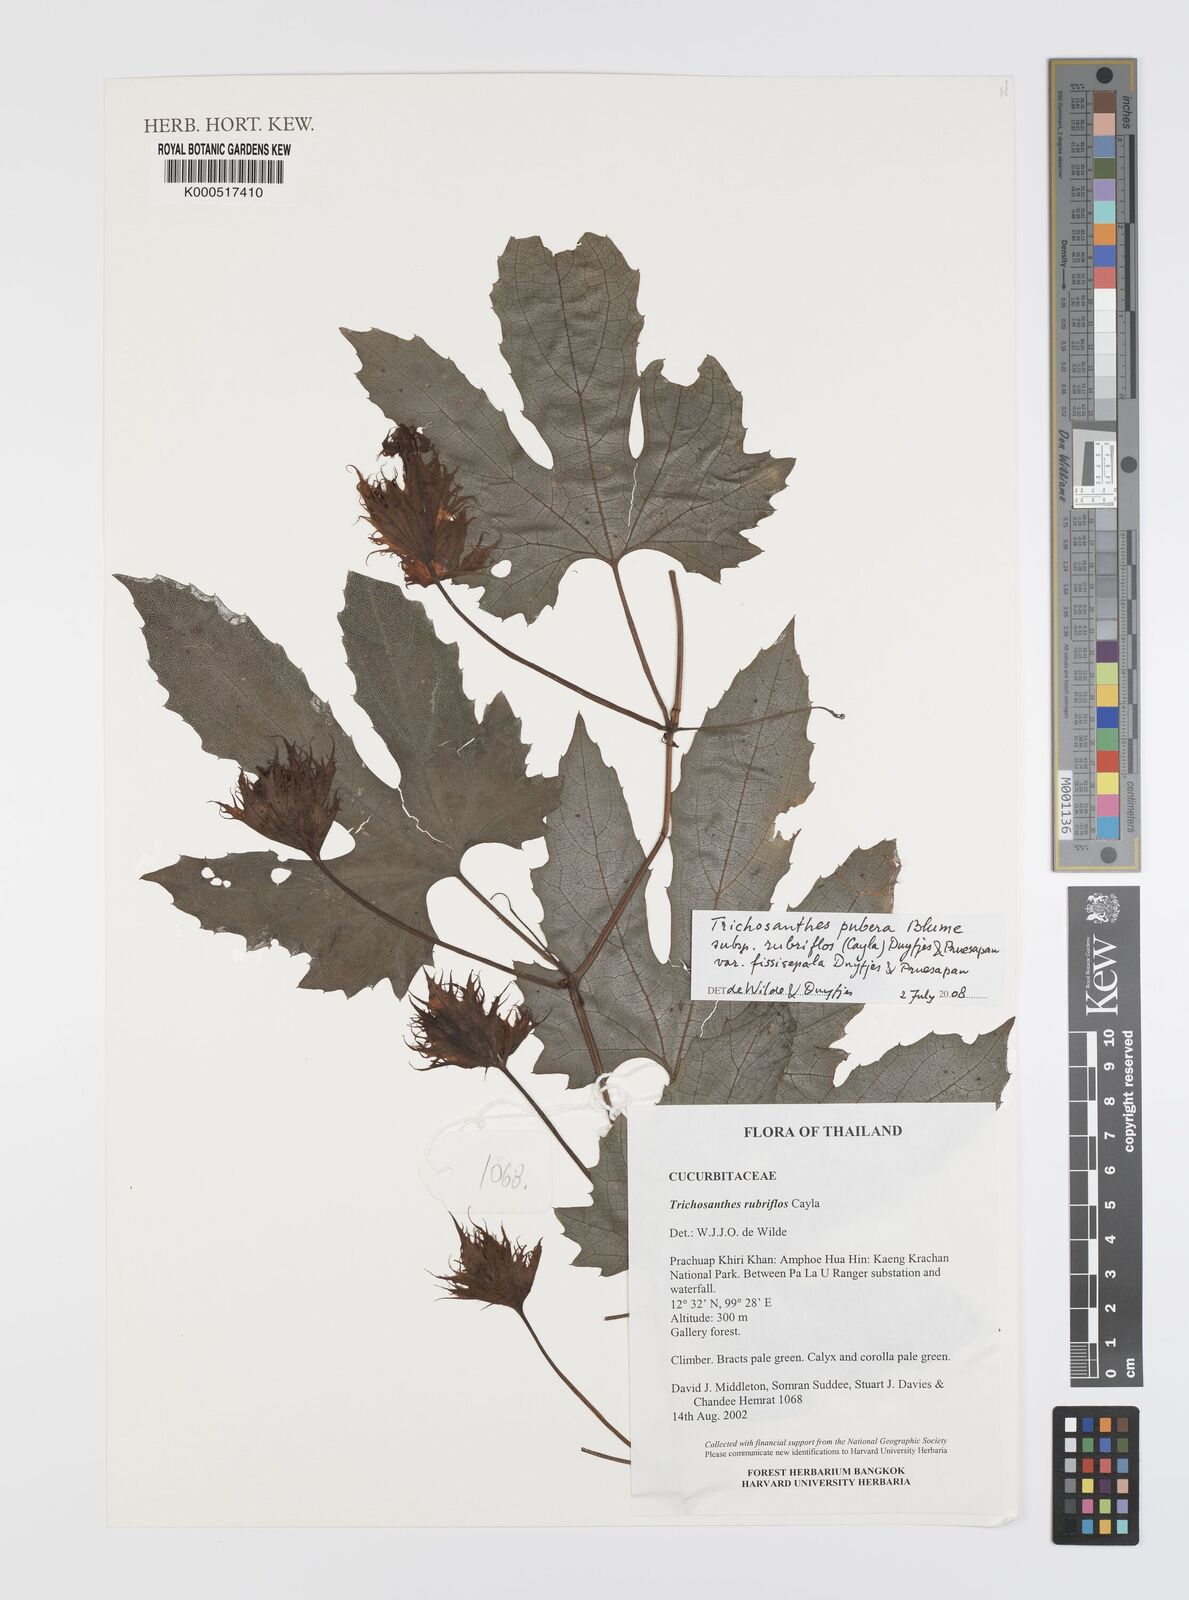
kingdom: Plantae
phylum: Tracheophyta
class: Magnoliopsida
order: Cucurbitales
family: Cucurbitaceae
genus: Trichosanthes
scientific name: Trichosanthes rubriflos
